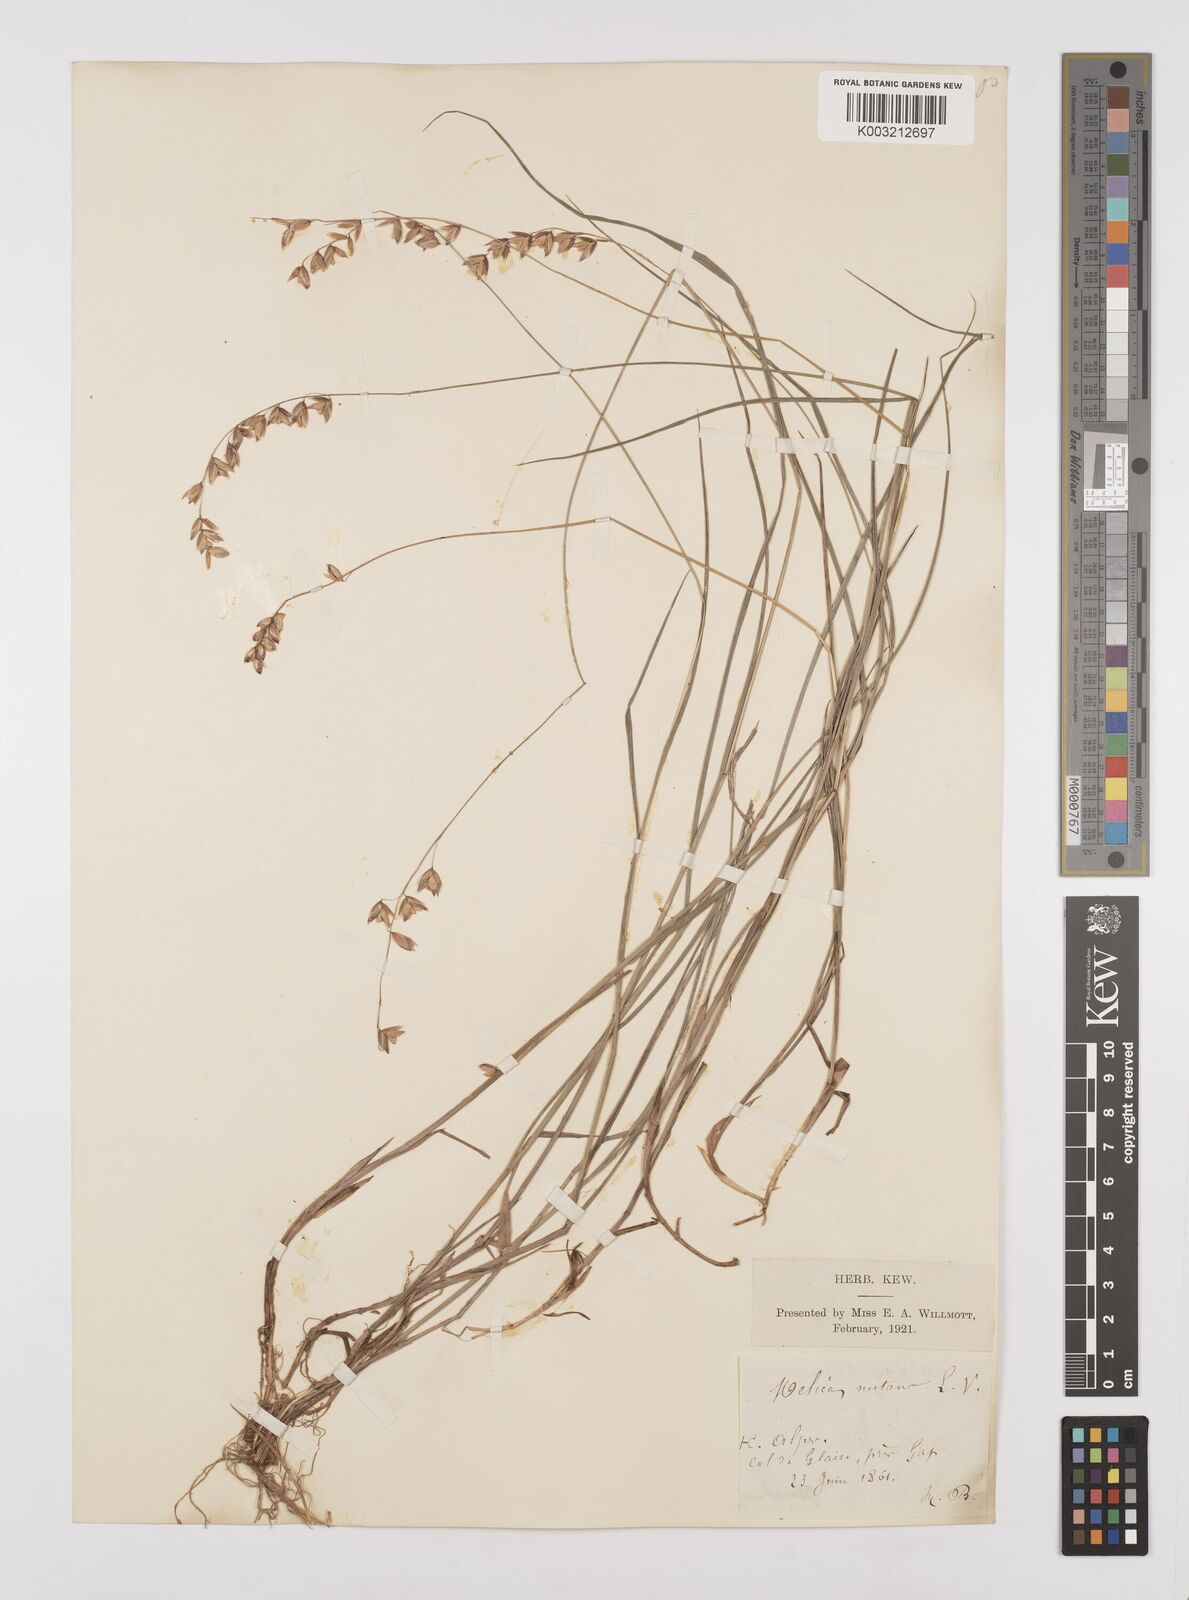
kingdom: Plantae
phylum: Tracheophyta
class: Liliopsida
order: Poales
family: Poaceae
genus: Melica
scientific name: Melica nutans
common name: Mountain melick
